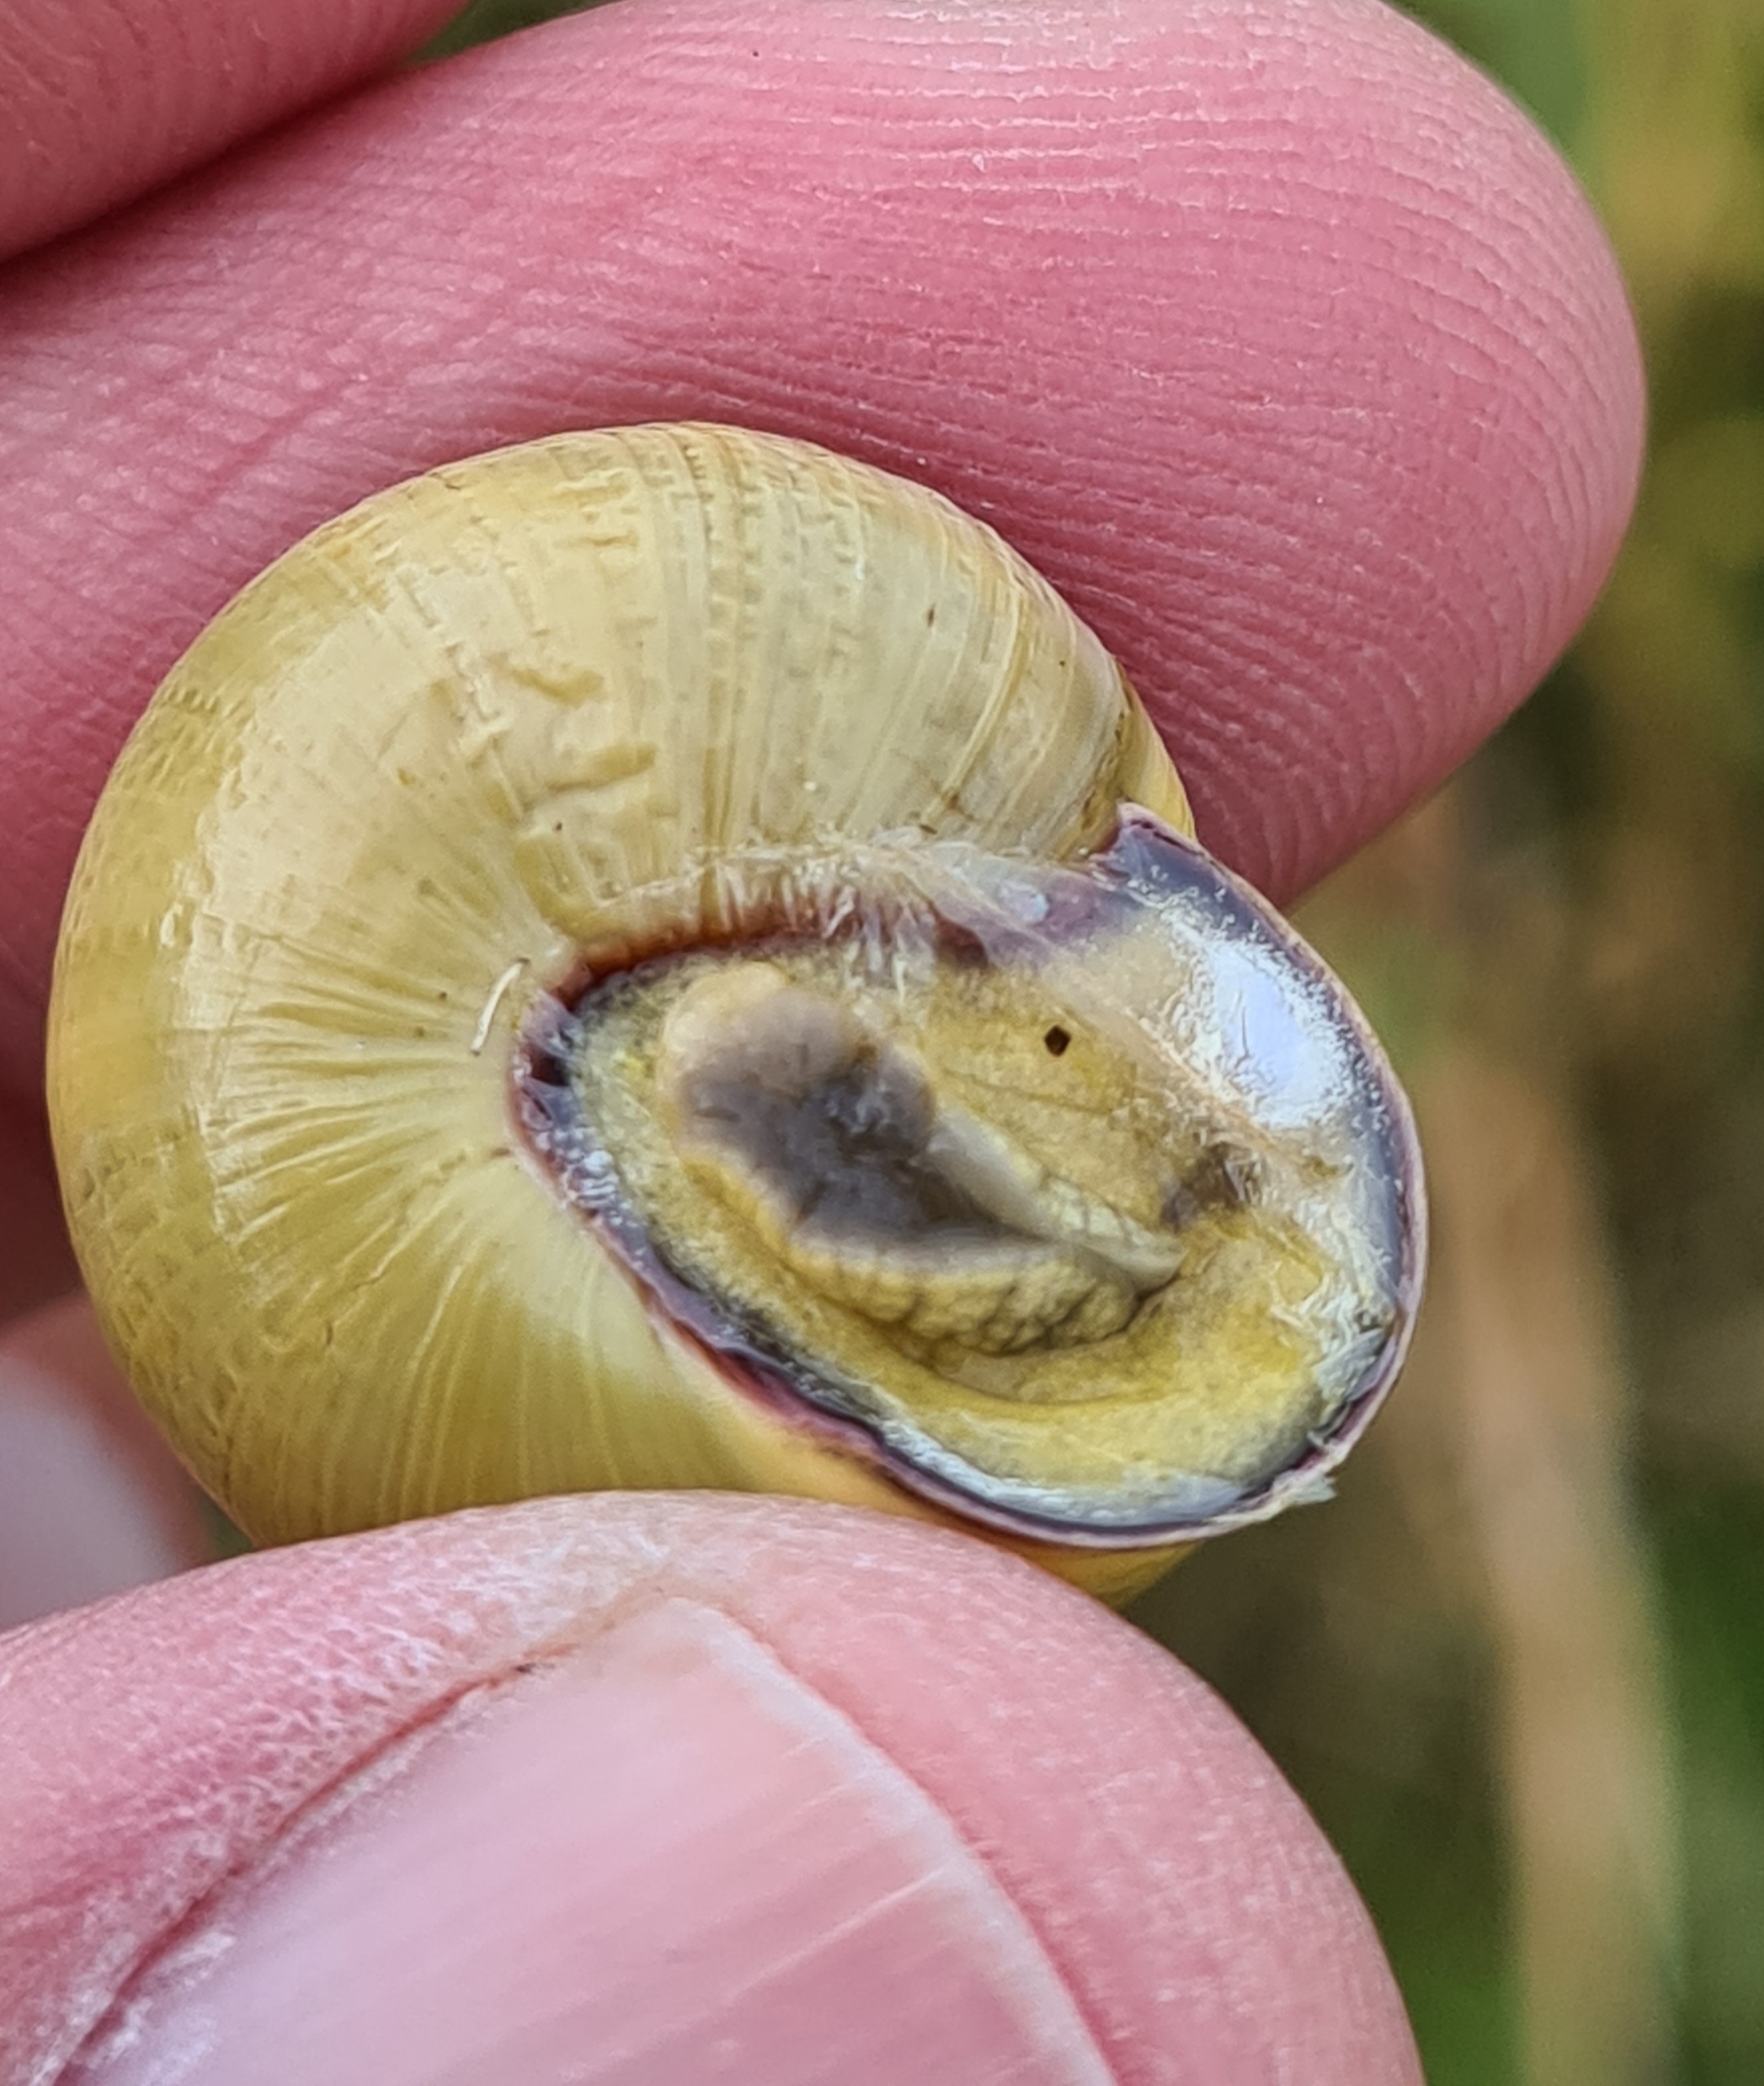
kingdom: Animalia
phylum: Mollusca
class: Gastropoda
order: Stylommatophora
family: Helicidae
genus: Cepaea
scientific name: Cepaea nemoralis
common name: Lundsnegl
